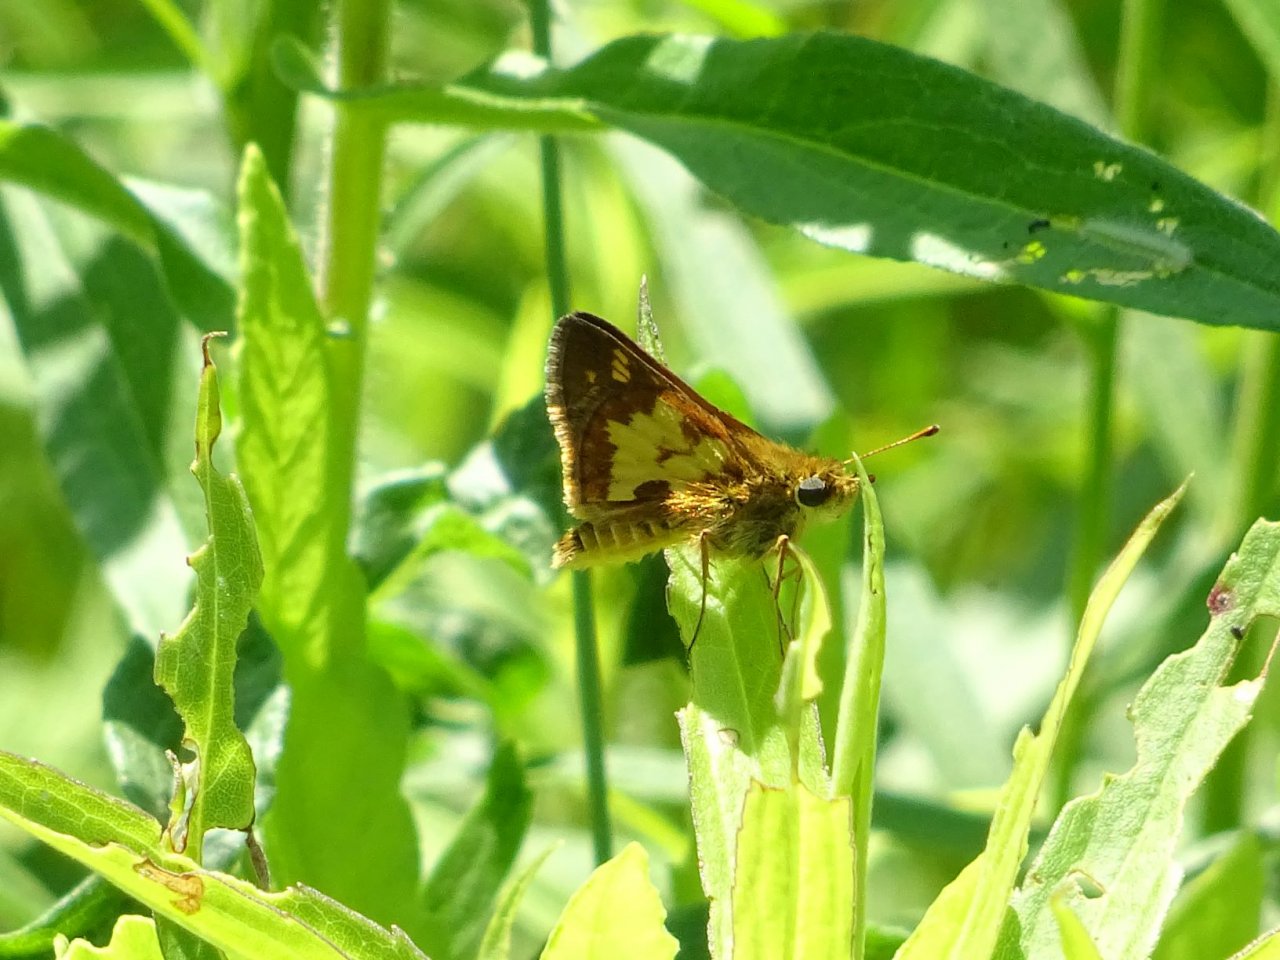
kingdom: Animalia
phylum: Arthropoda
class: Insecta
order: Lepidoptera
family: Hesperiidae
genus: Polites
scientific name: Polites coras
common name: Peck's Skipper
